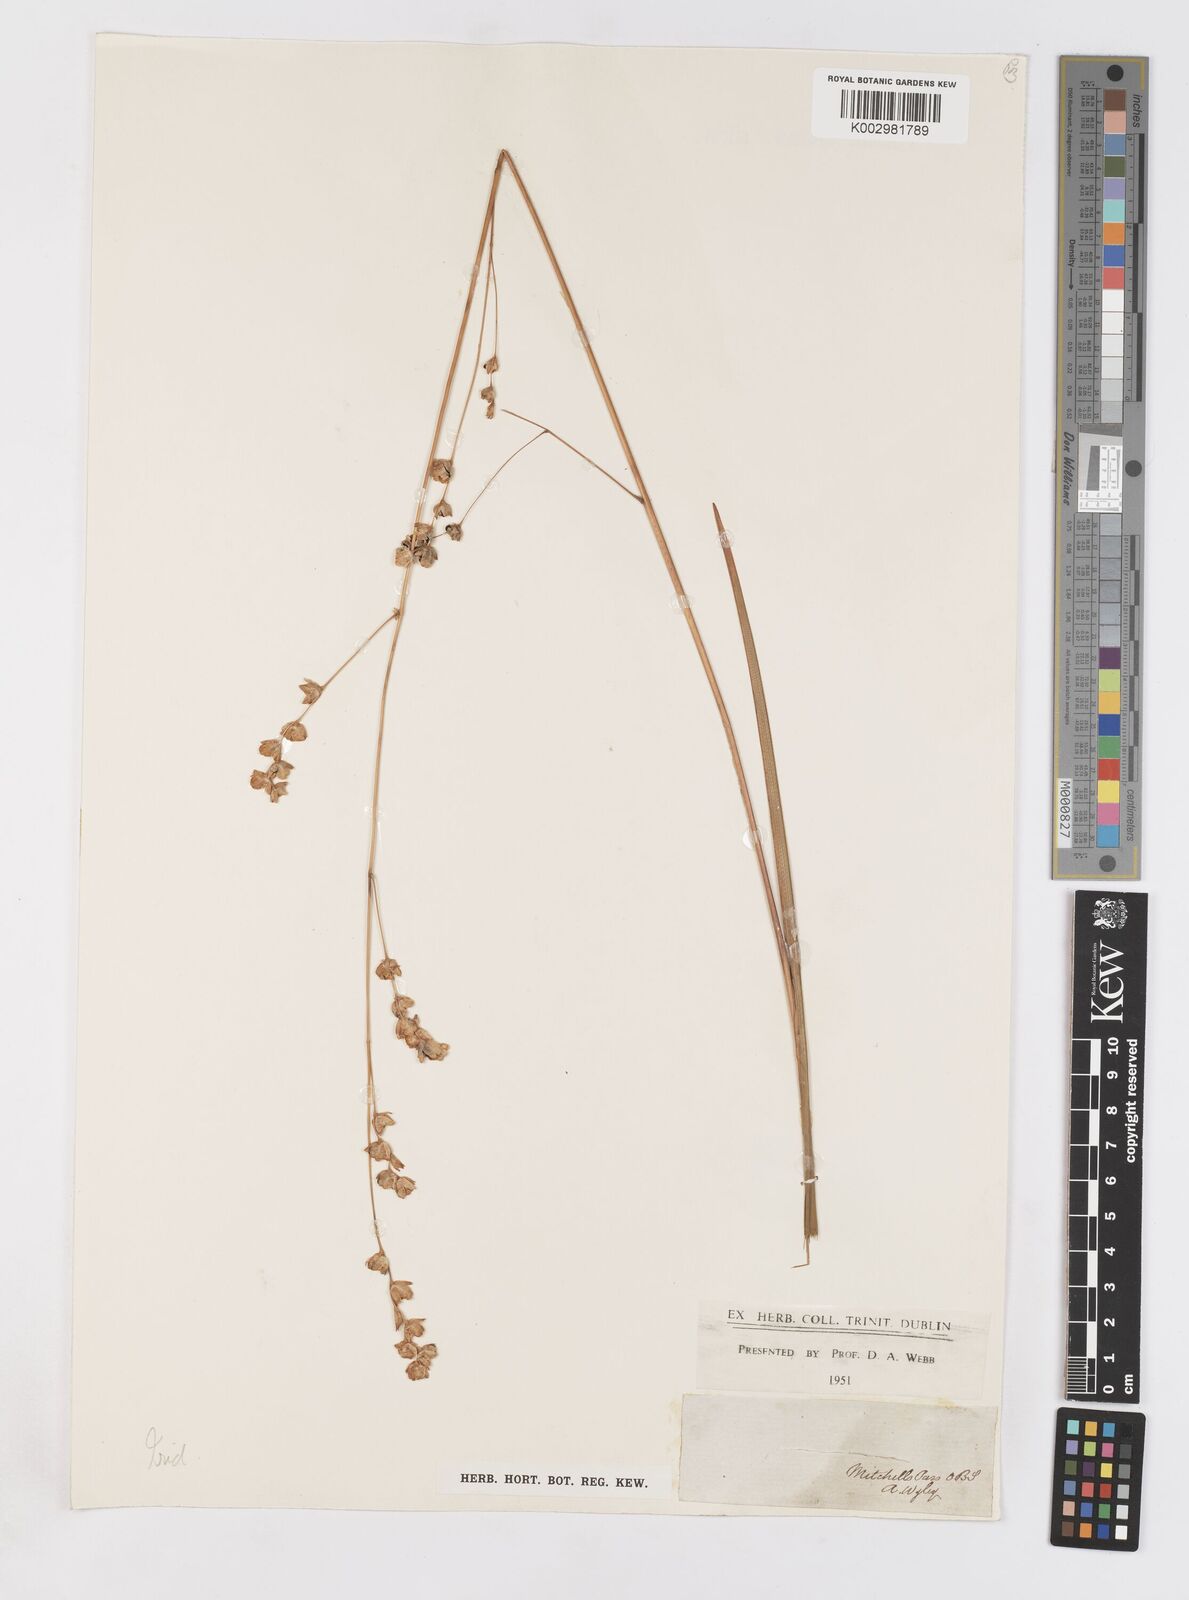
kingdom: Plantae
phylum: Tracheophyta
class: Liliopsida
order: Asparagales
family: Iridaceae
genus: Dierama
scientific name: Dierama pendulum
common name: Grassy-bell
